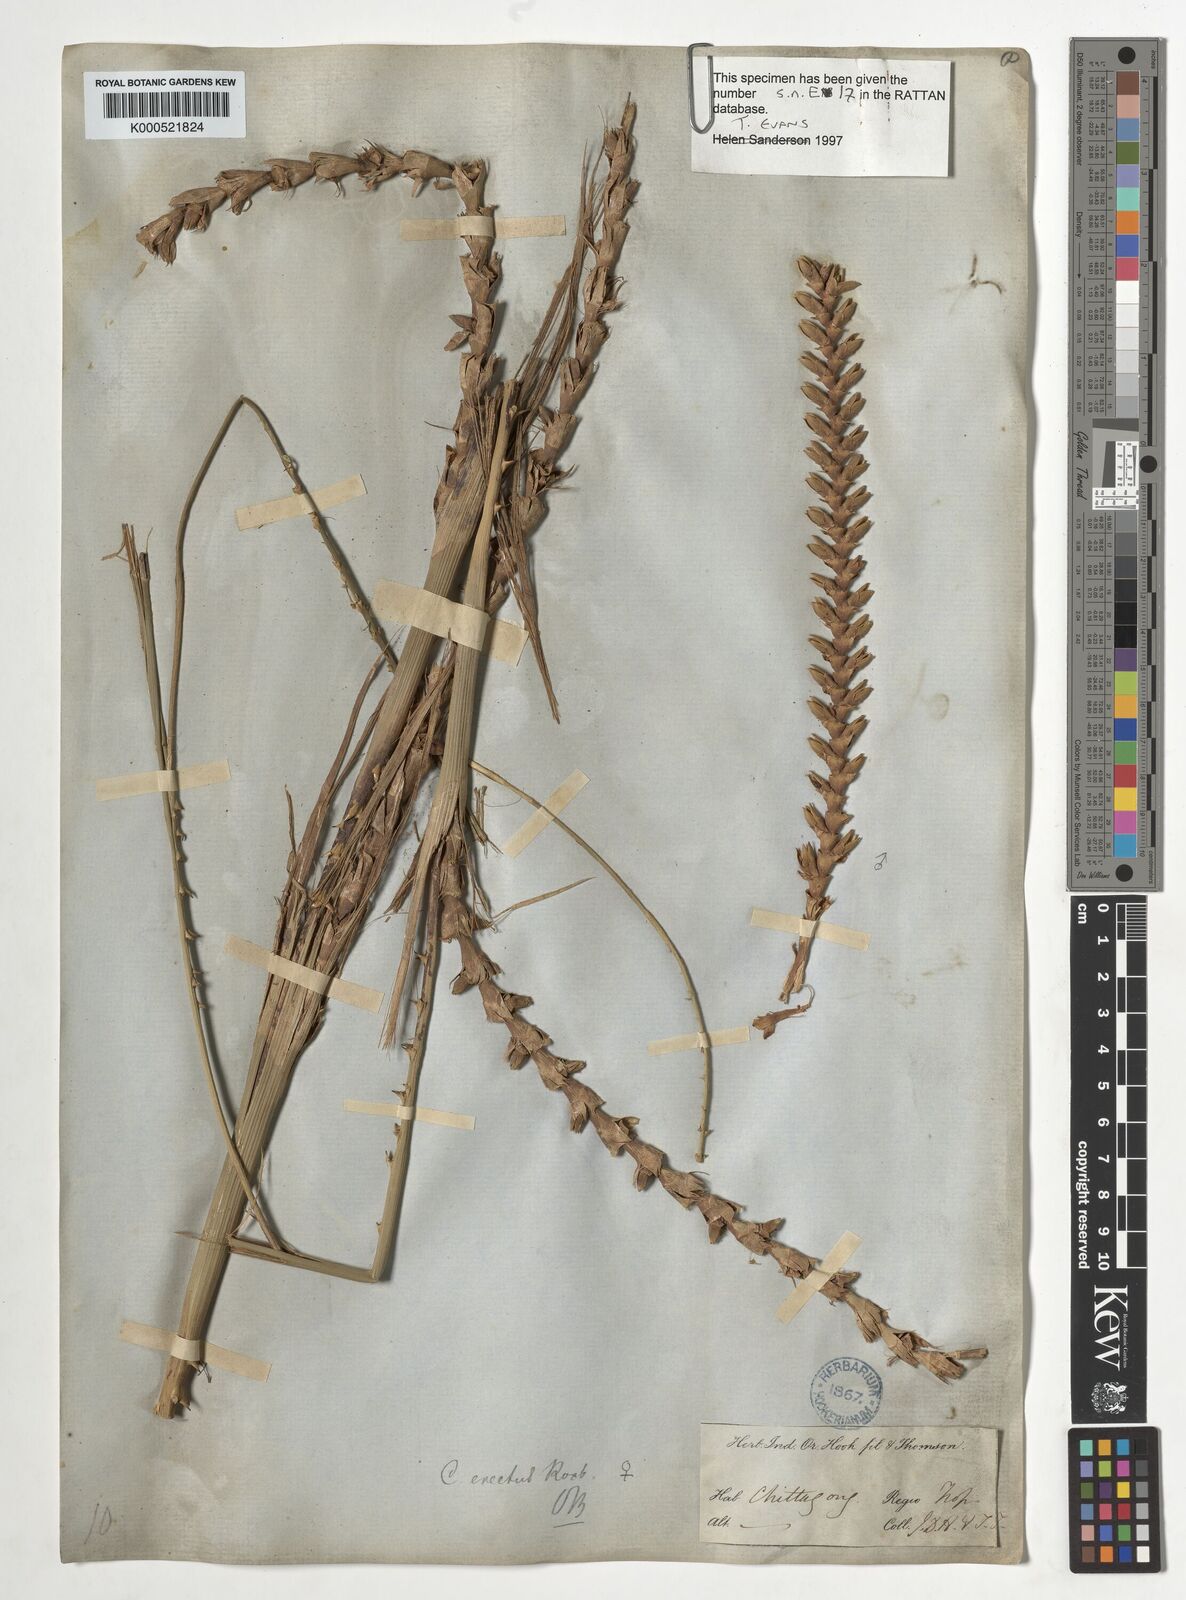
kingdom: Plantae
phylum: Tracheophyta
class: Liliopsida
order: Arecales
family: Arecaceae
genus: Calamus
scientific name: Calamus erectus
